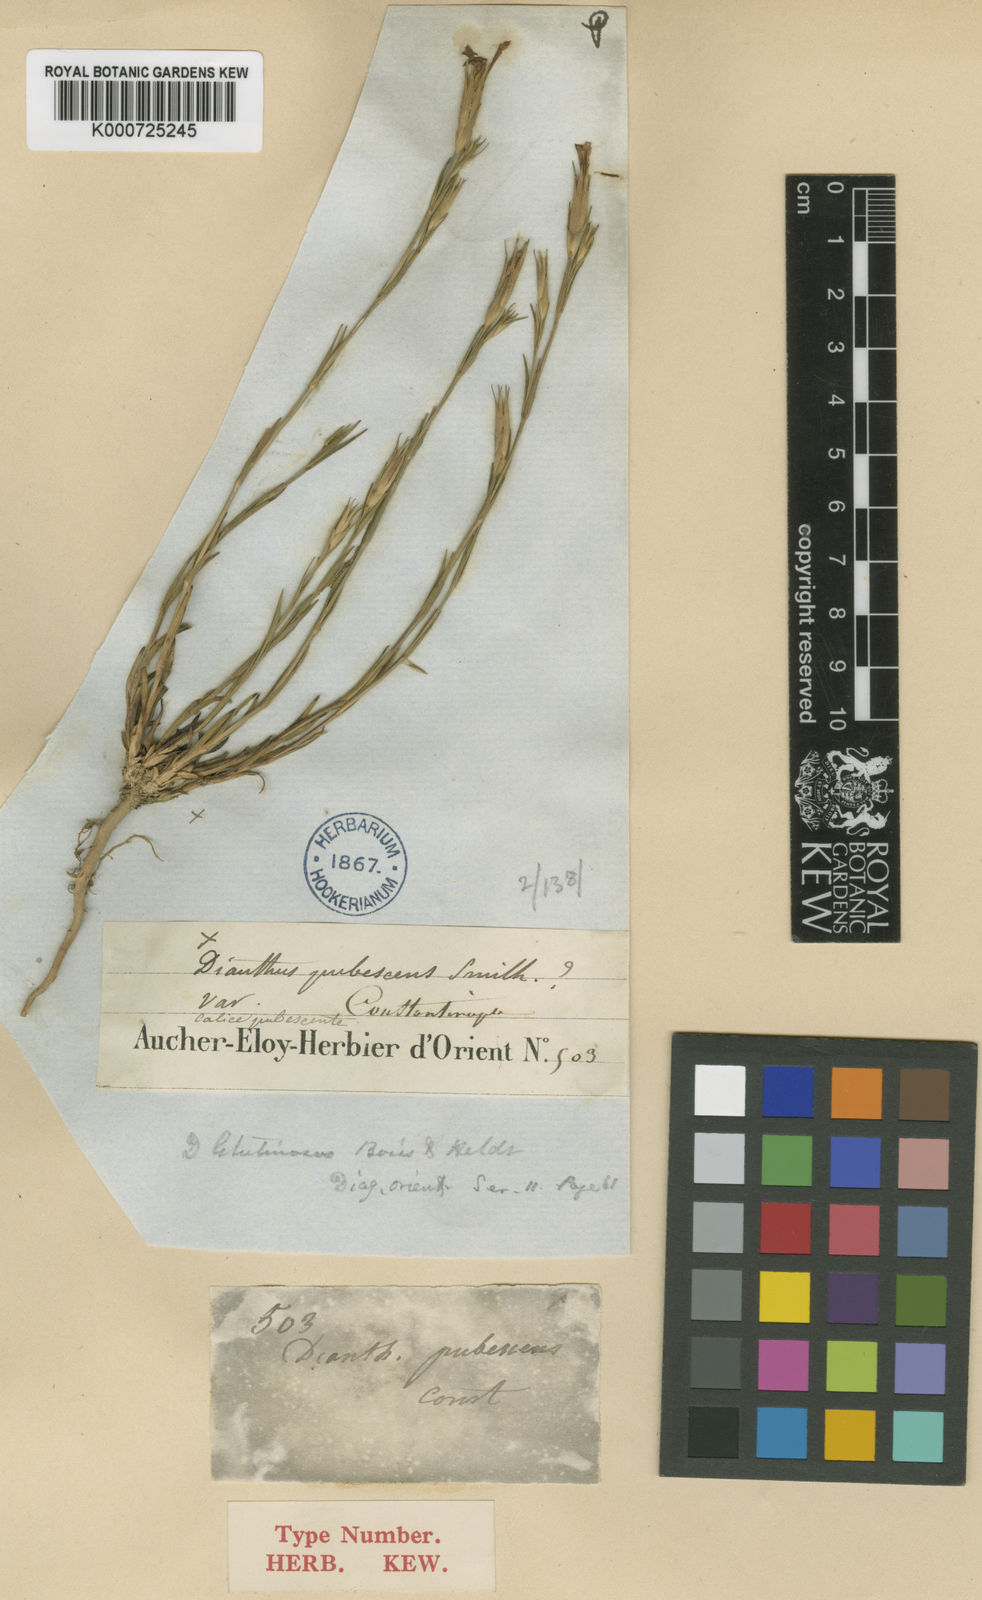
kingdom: Plantae
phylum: Tracheophyta
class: Magnoliopsida
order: Caryophyllales
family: Caryophyllaceae
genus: Dianthus
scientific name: Dianthus glutinosus
